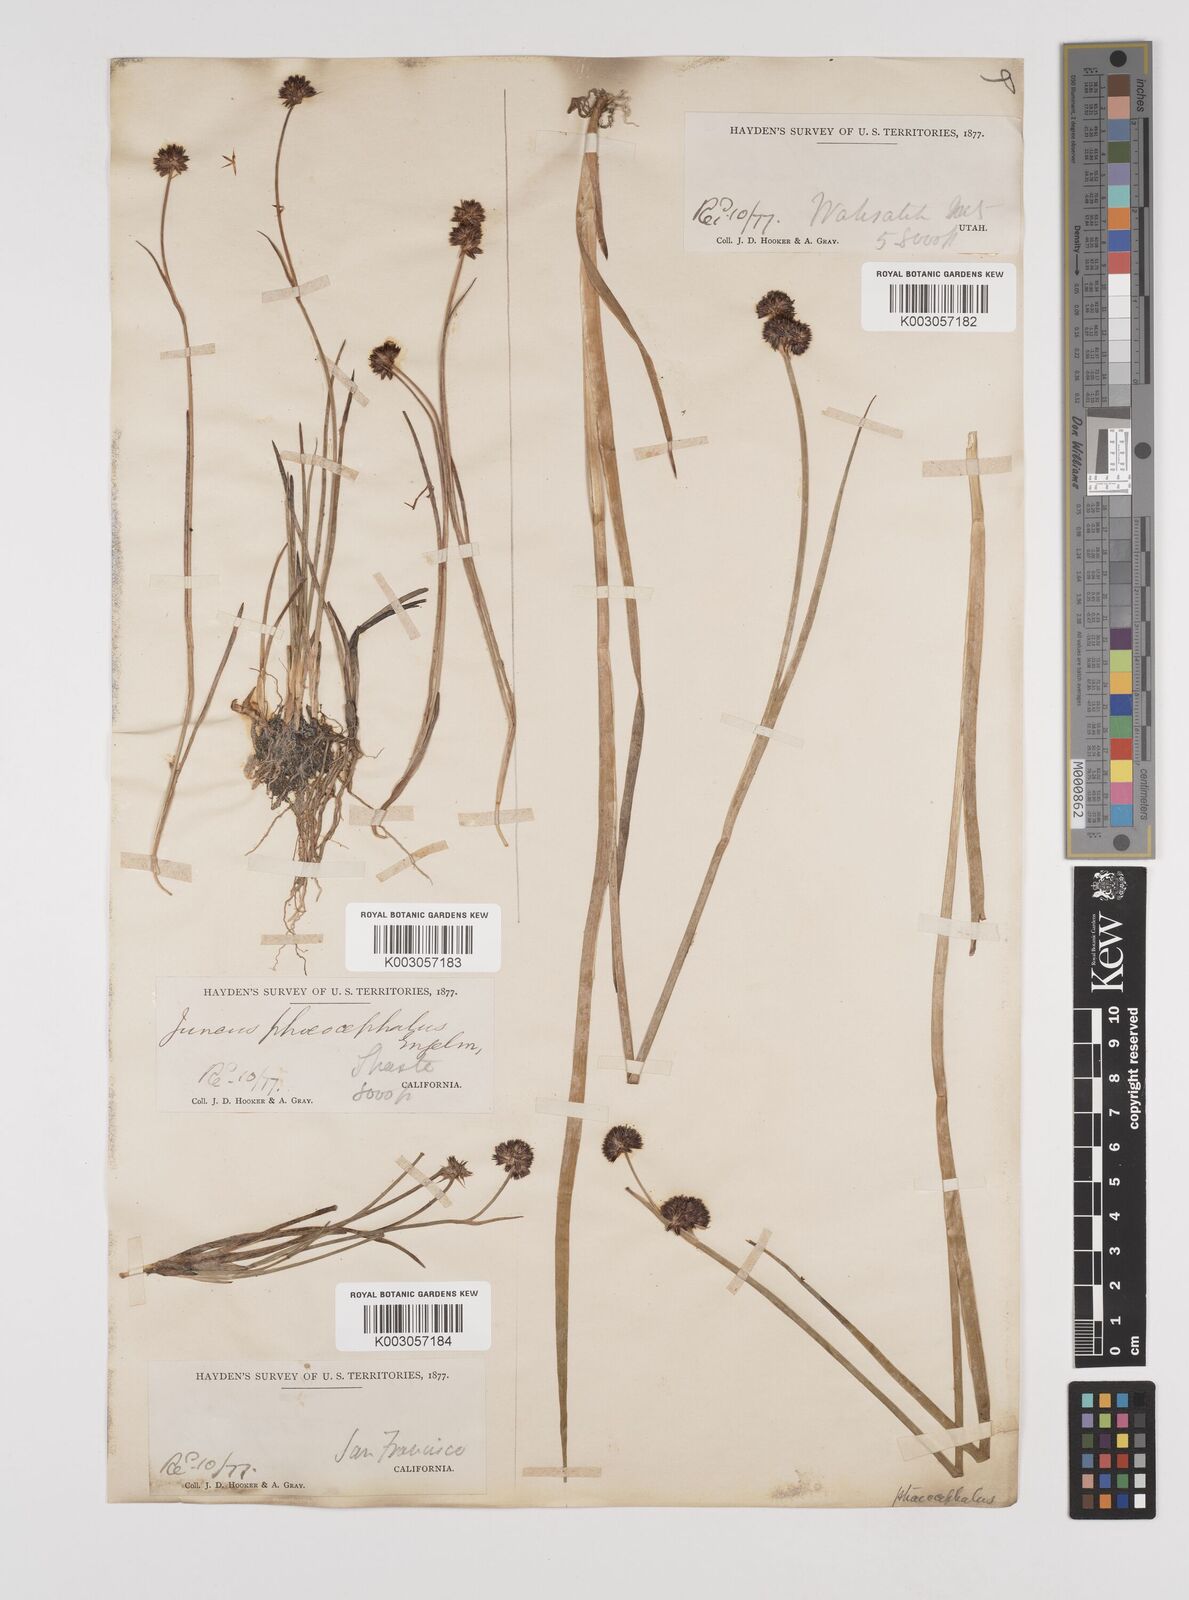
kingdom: Plantae
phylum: Tracheophyta
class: Liliopsida
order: Poales
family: Juncaceae
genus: Juncus
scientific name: Juncus phaeocephalus
